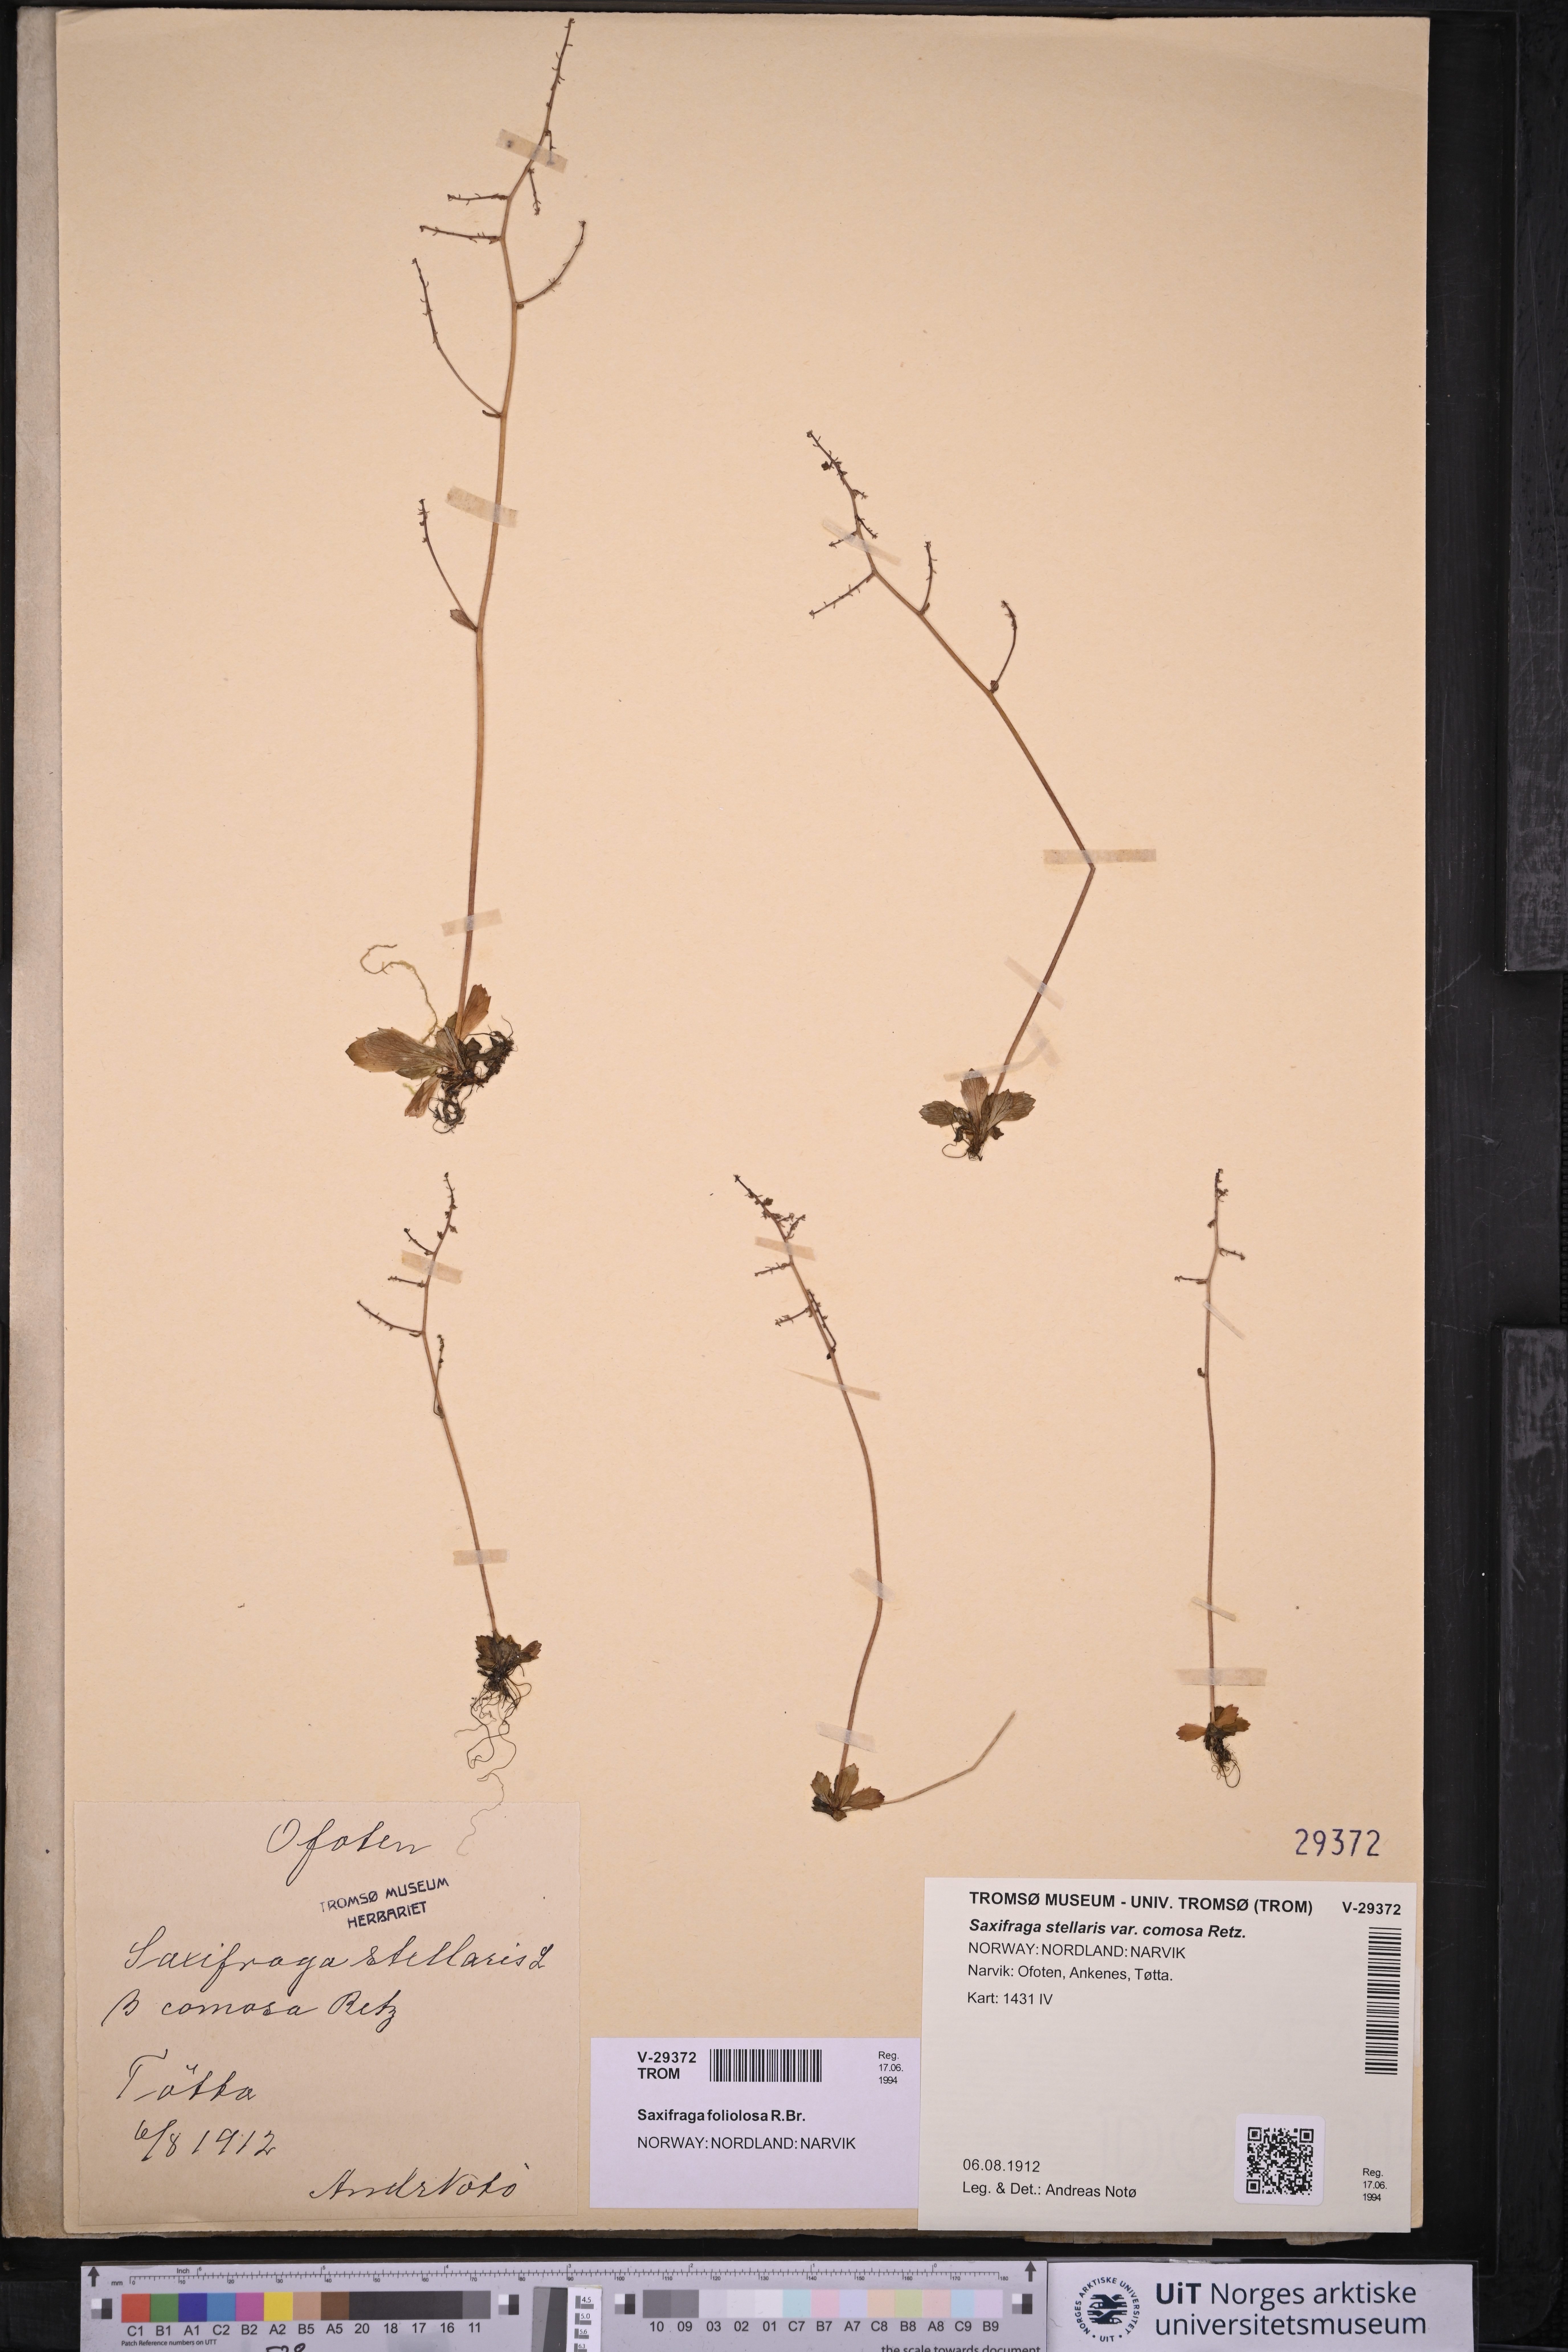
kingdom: Plantae
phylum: Tracheophyta
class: Magnoliopsida
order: Saxifragales
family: Saxifragaceae
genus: Micranthes
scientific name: Micranthes foliolosa
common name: Leafystem saxifrage
